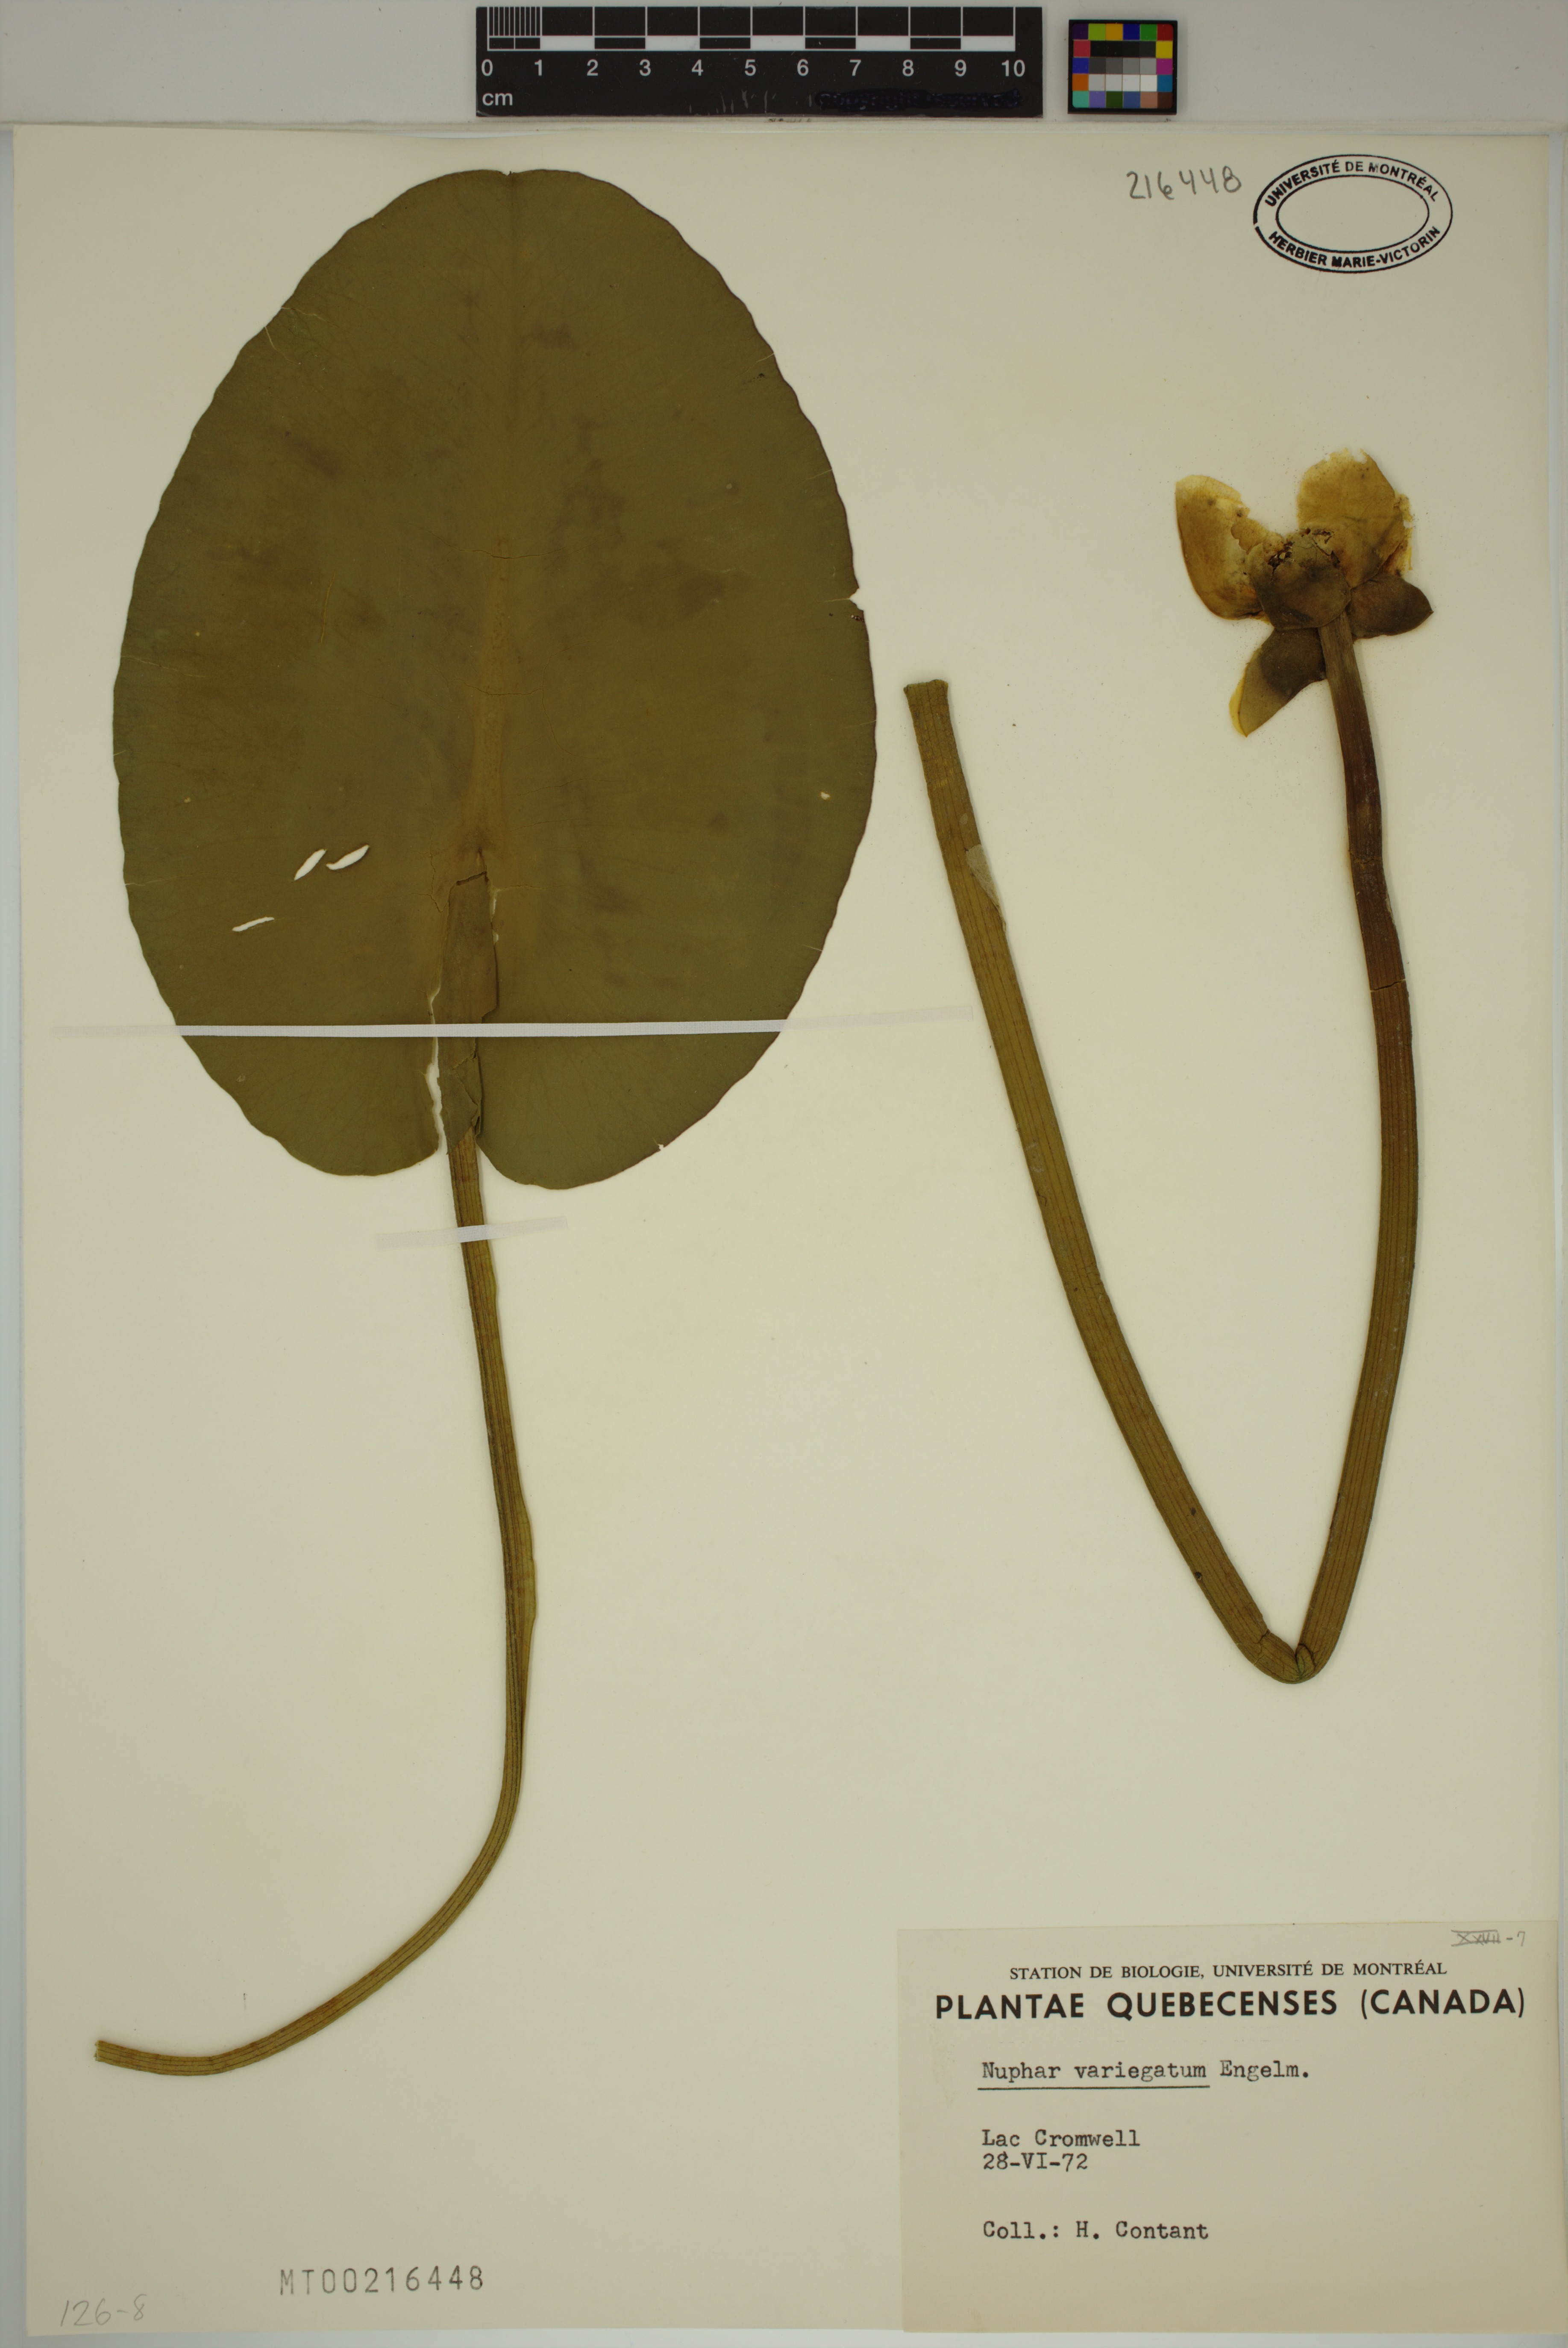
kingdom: Plantae
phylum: Tracheophyta
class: Magnoliopsida
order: Nymphaeales
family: Nymphaeaceae
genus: Nuphar
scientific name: Nuphar variegata
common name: Beaver-root
